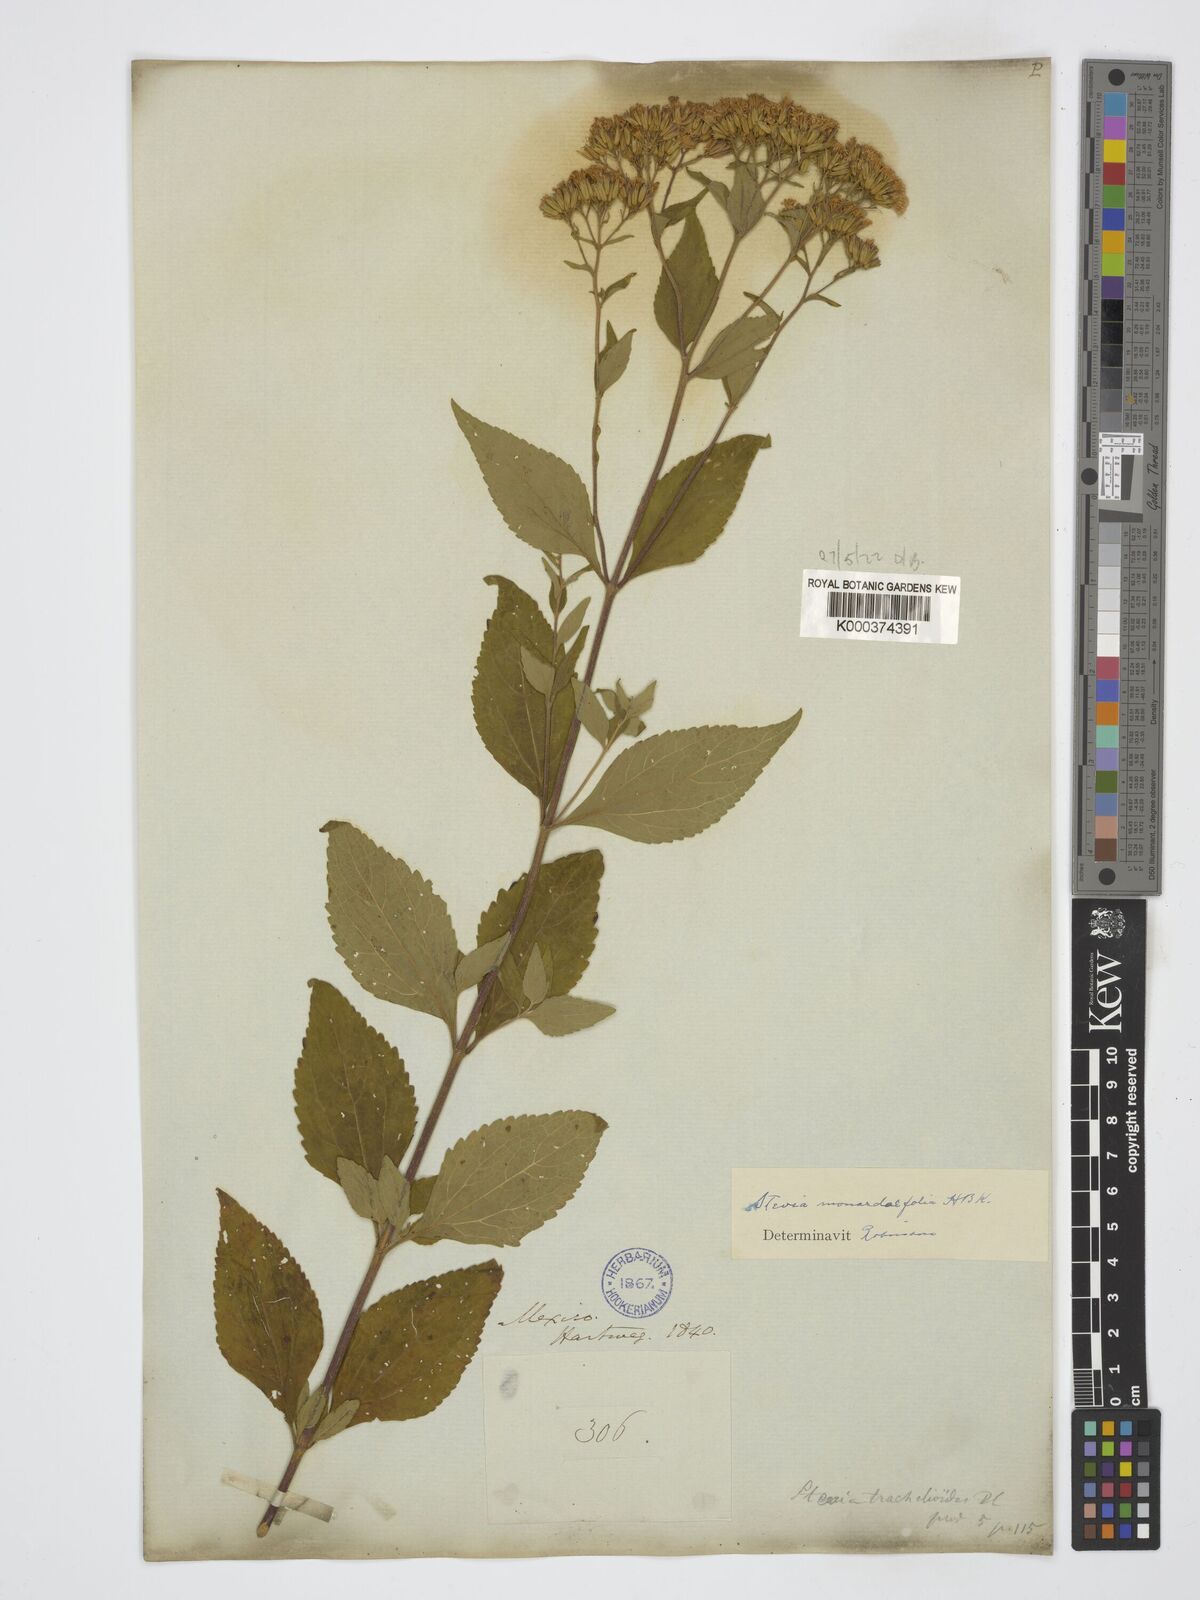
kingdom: Plantae
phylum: Tracheophyta
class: Magnoliopsida
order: Asterales
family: Asteraceae
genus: Stevia
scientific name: Stevia monardifolia
